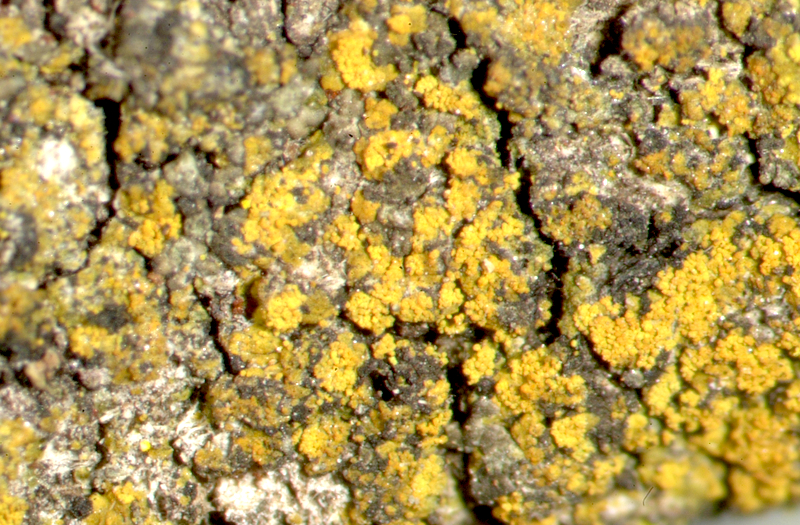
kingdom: Fungi
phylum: Ascomycota
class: Lecanoromycetes
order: Caliciales
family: Physciaceae
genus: Physconia
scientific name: Physconia distorta
